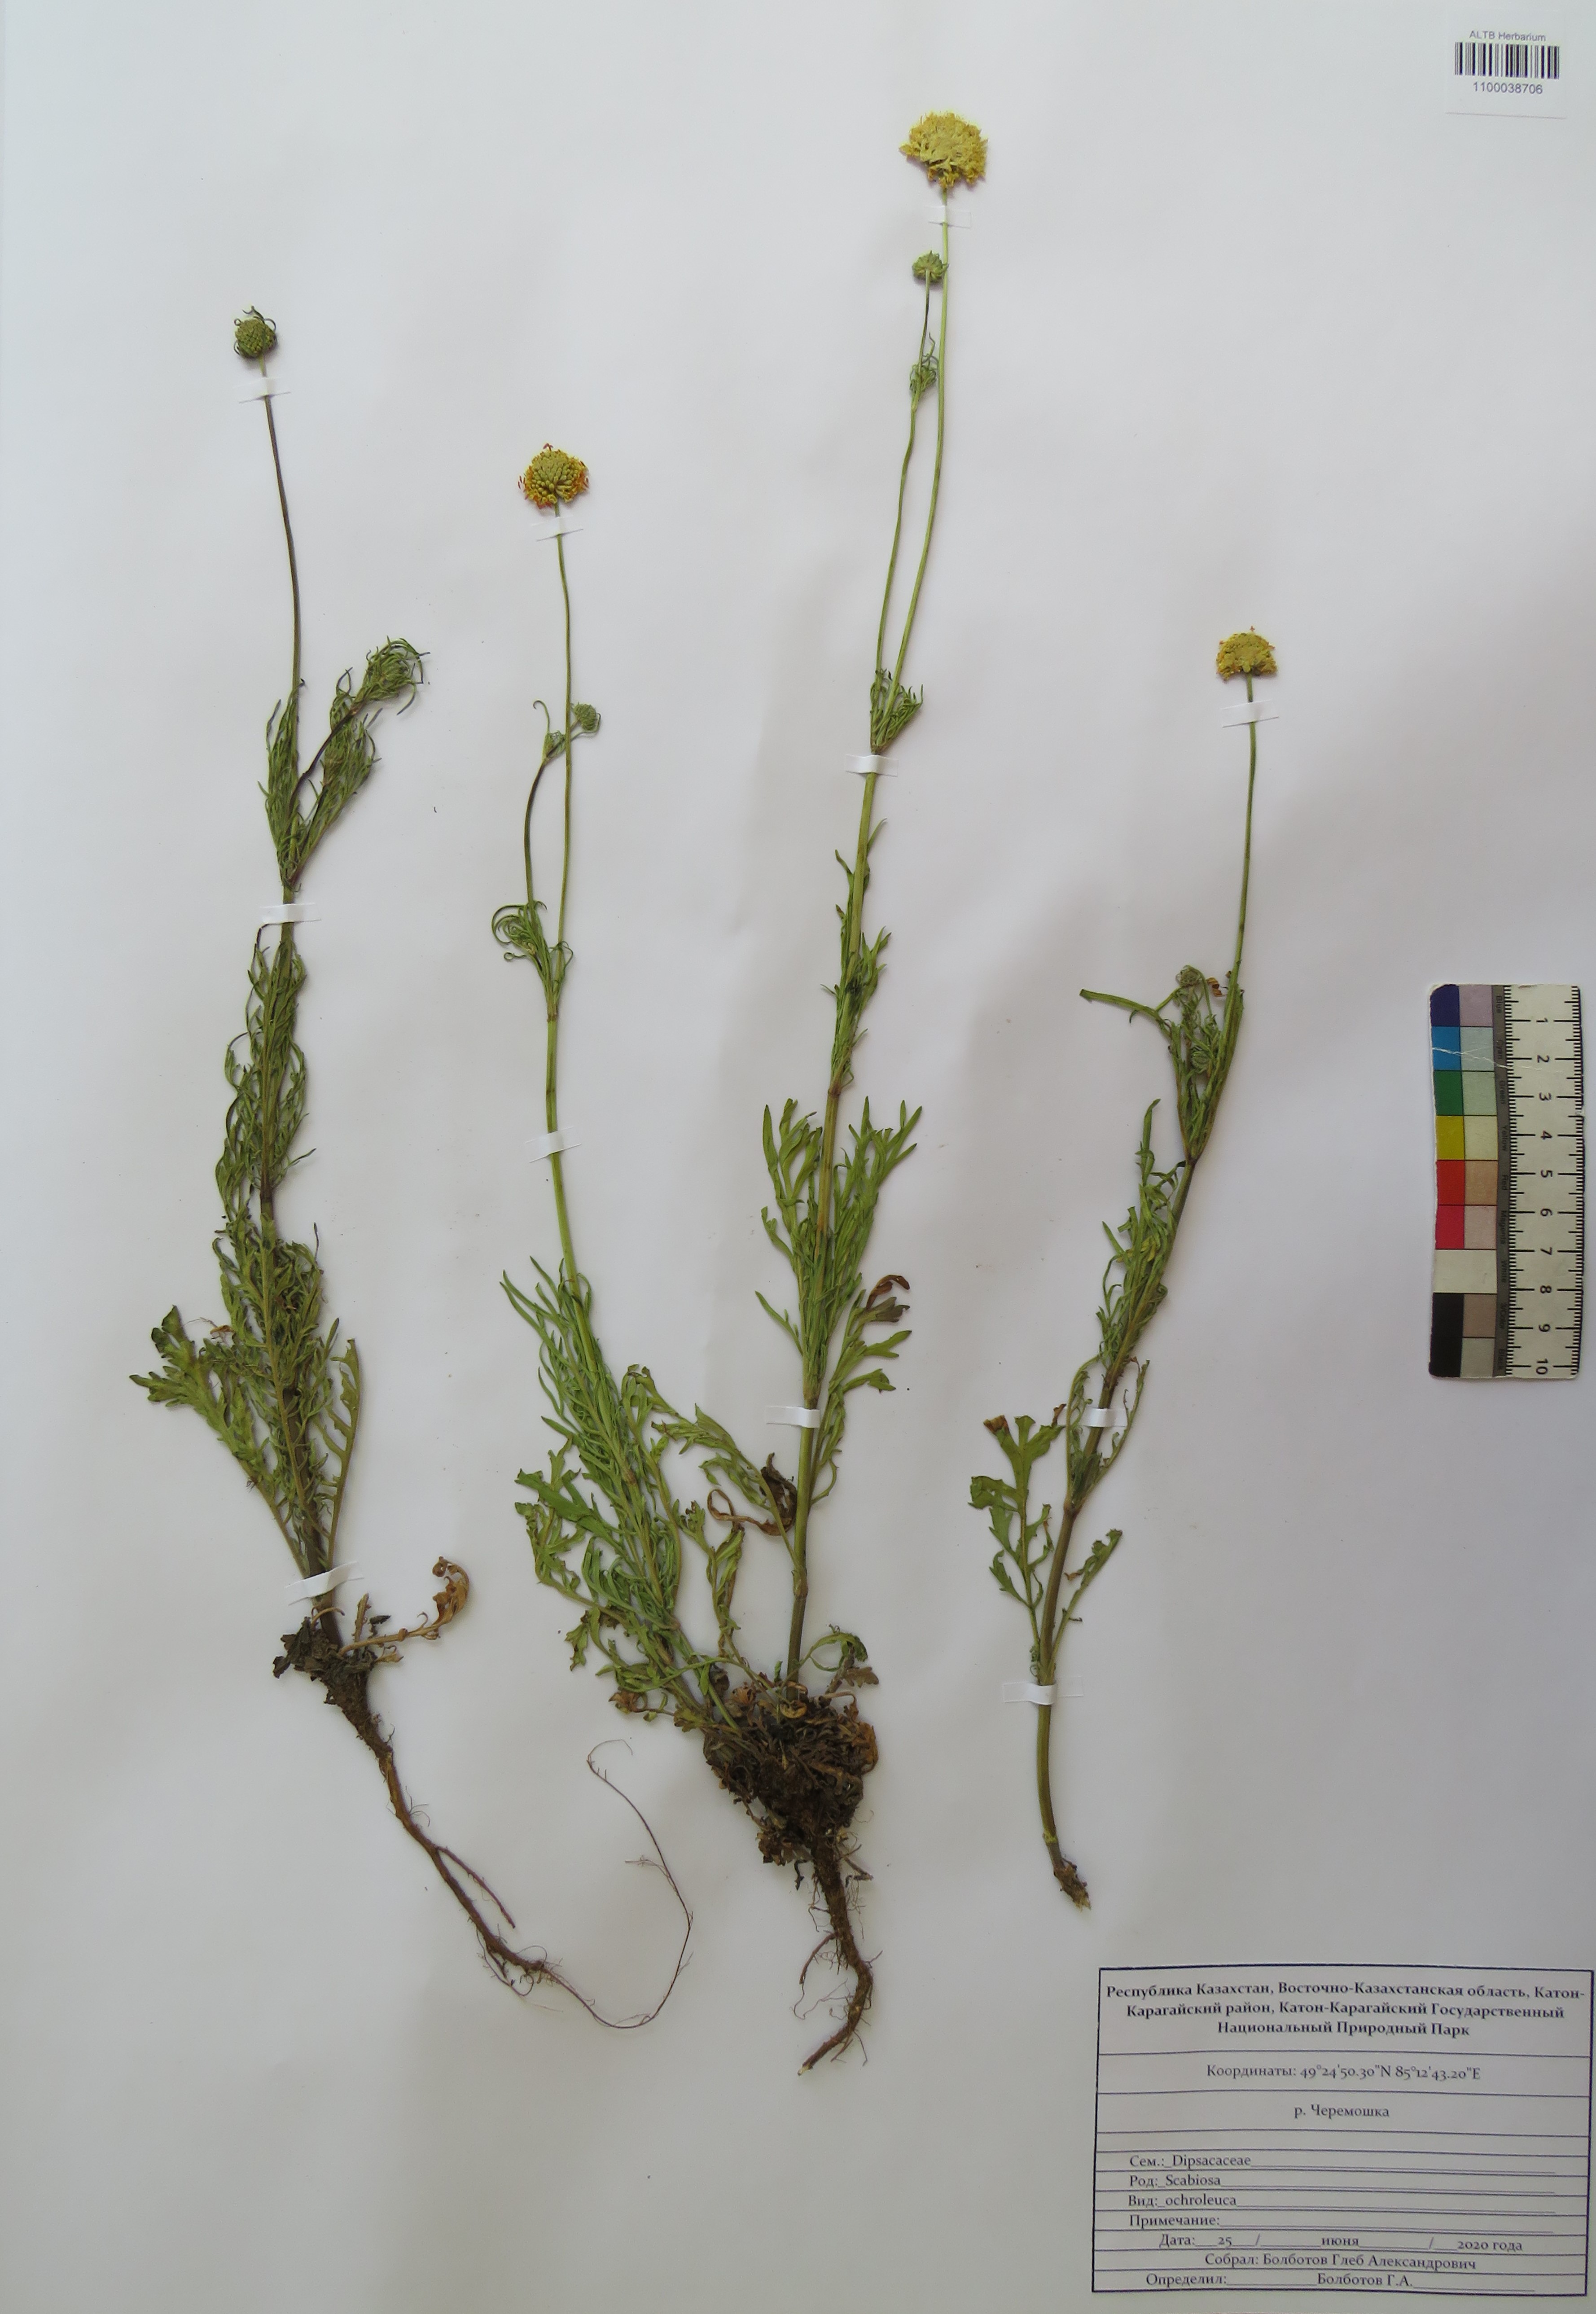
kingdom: Plantae
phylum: Tracheophyta
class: Magnoliopsida
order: Dipsacales
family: Caprifoliaceae
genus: Scabiosa
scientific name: Scabiosa ochroleuca
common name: Cream pincushions
